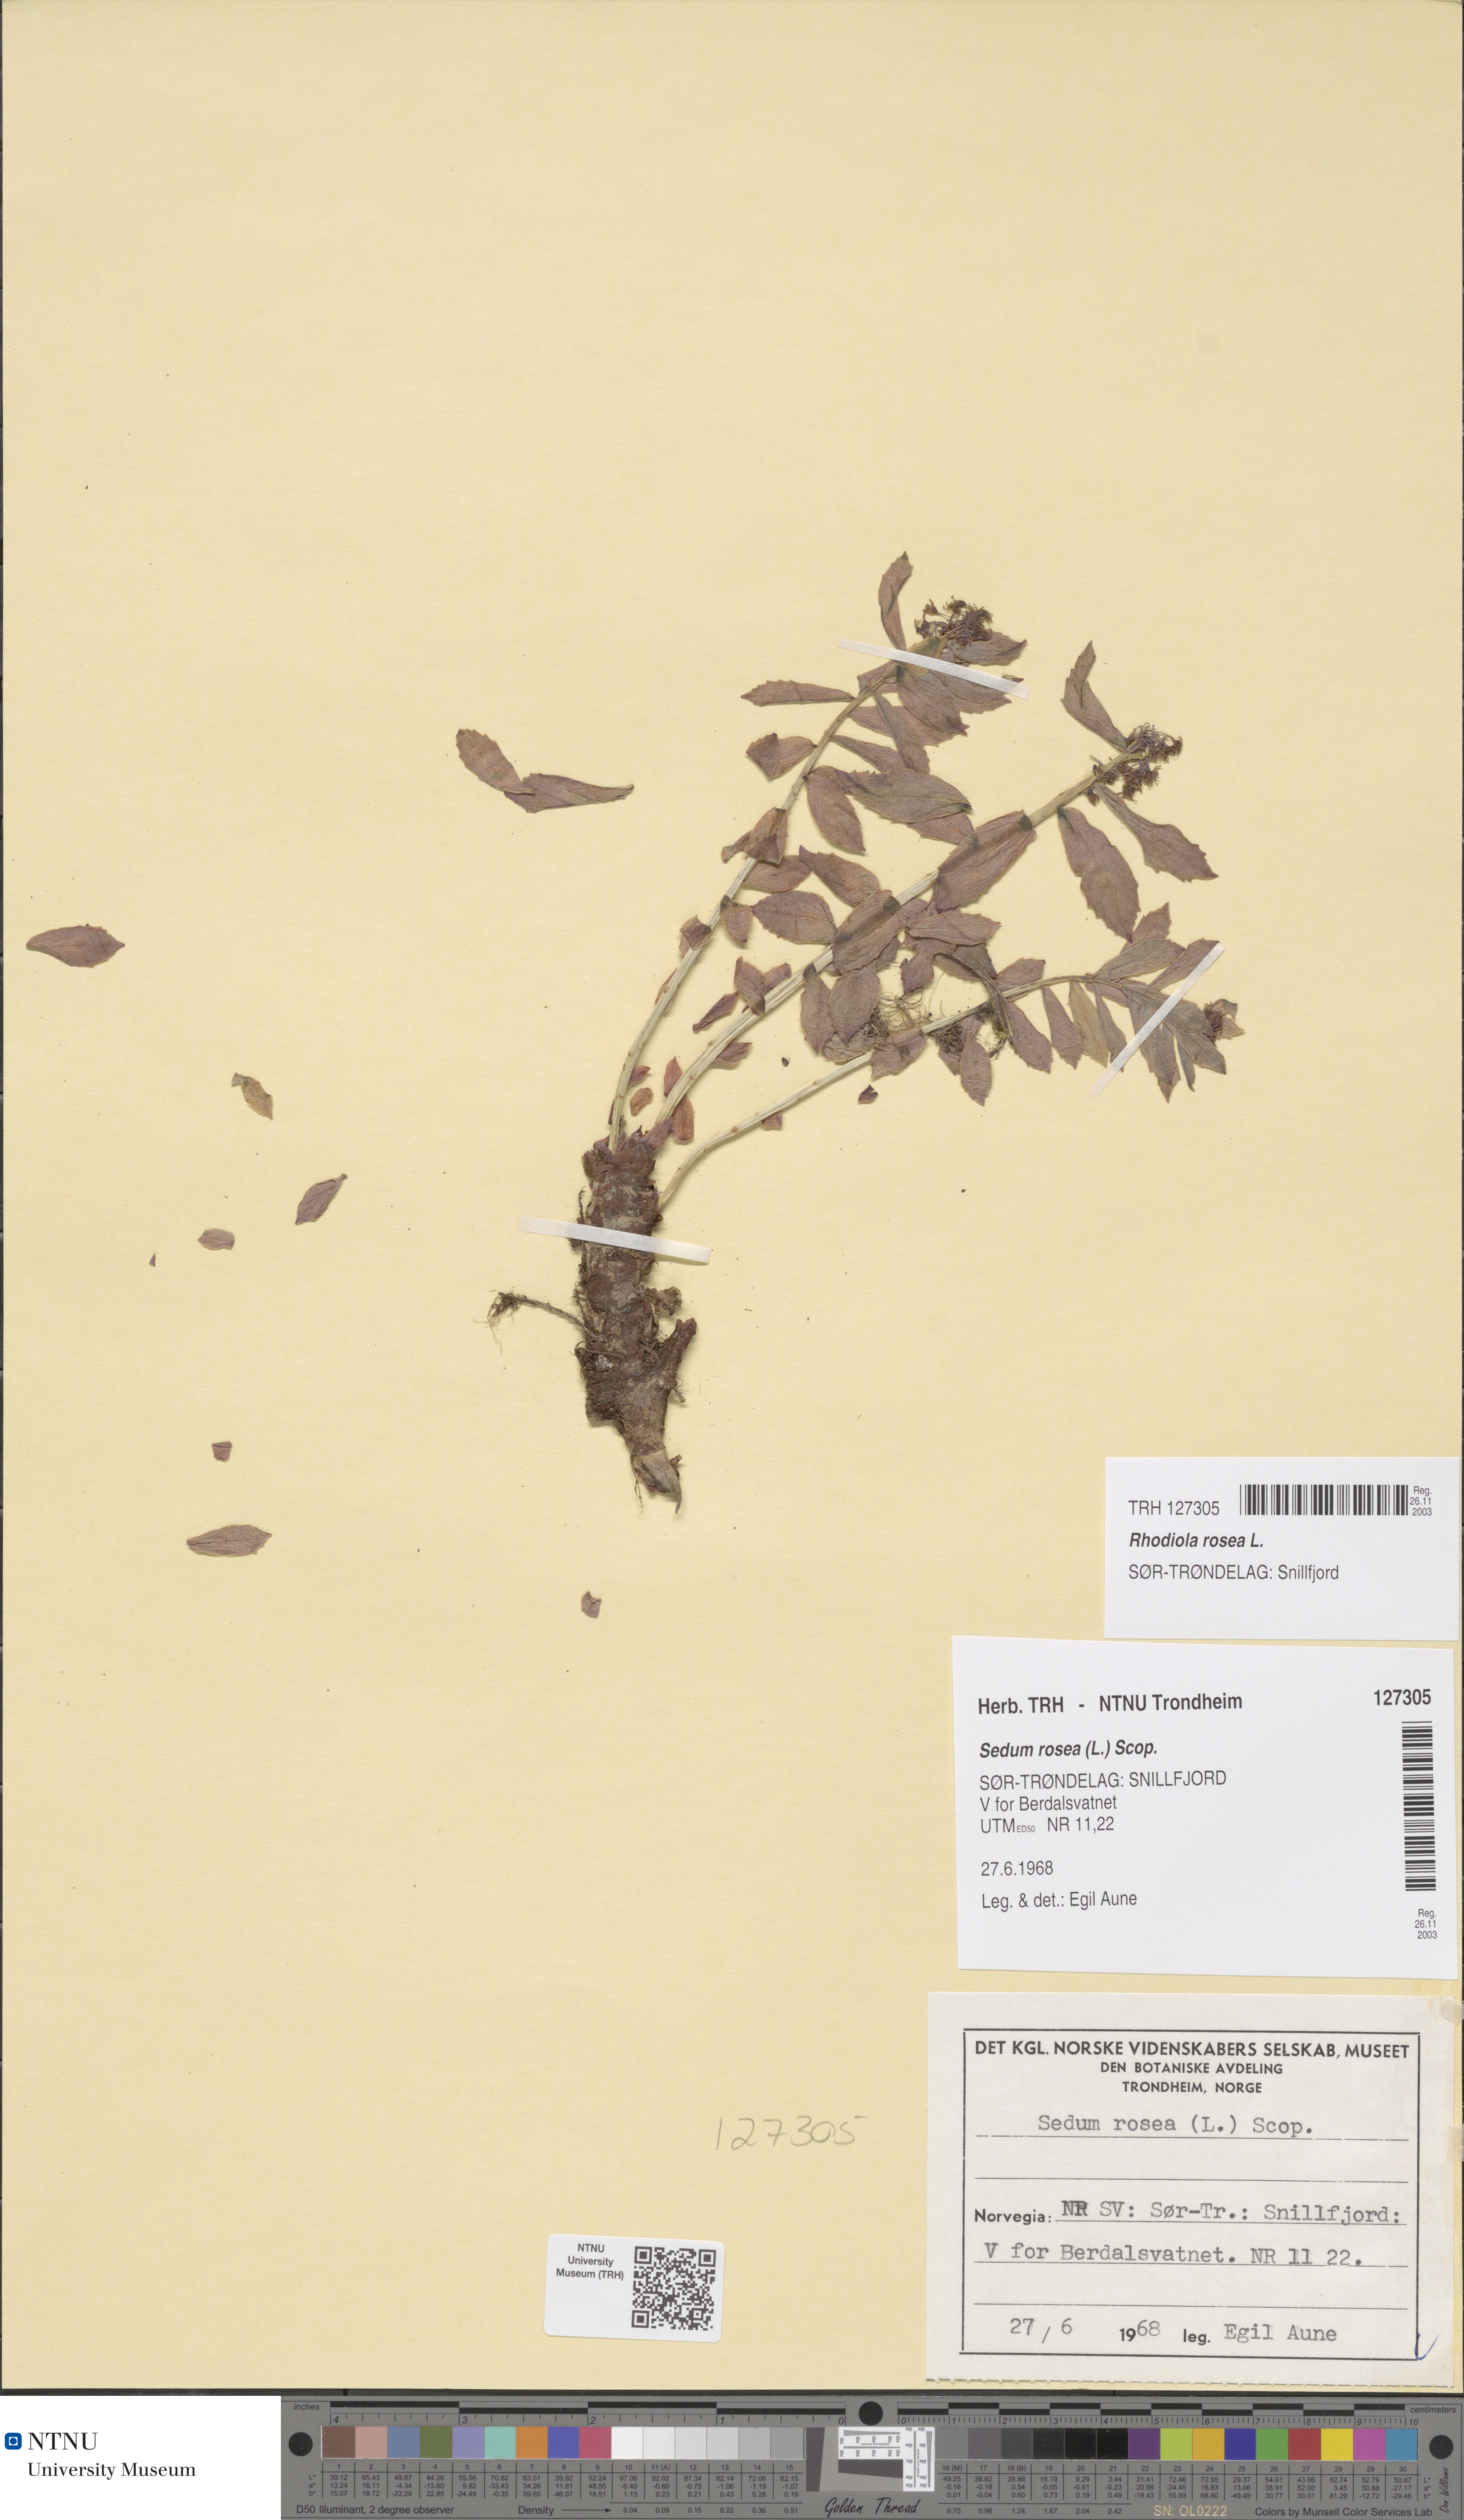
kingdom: Plantae
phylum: Tracheophyta
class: Magnoliopsida
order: Saxifragales
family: Crassulaceae
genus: Rhodiola
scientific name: Rhodiola rosea
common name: Roseroot
